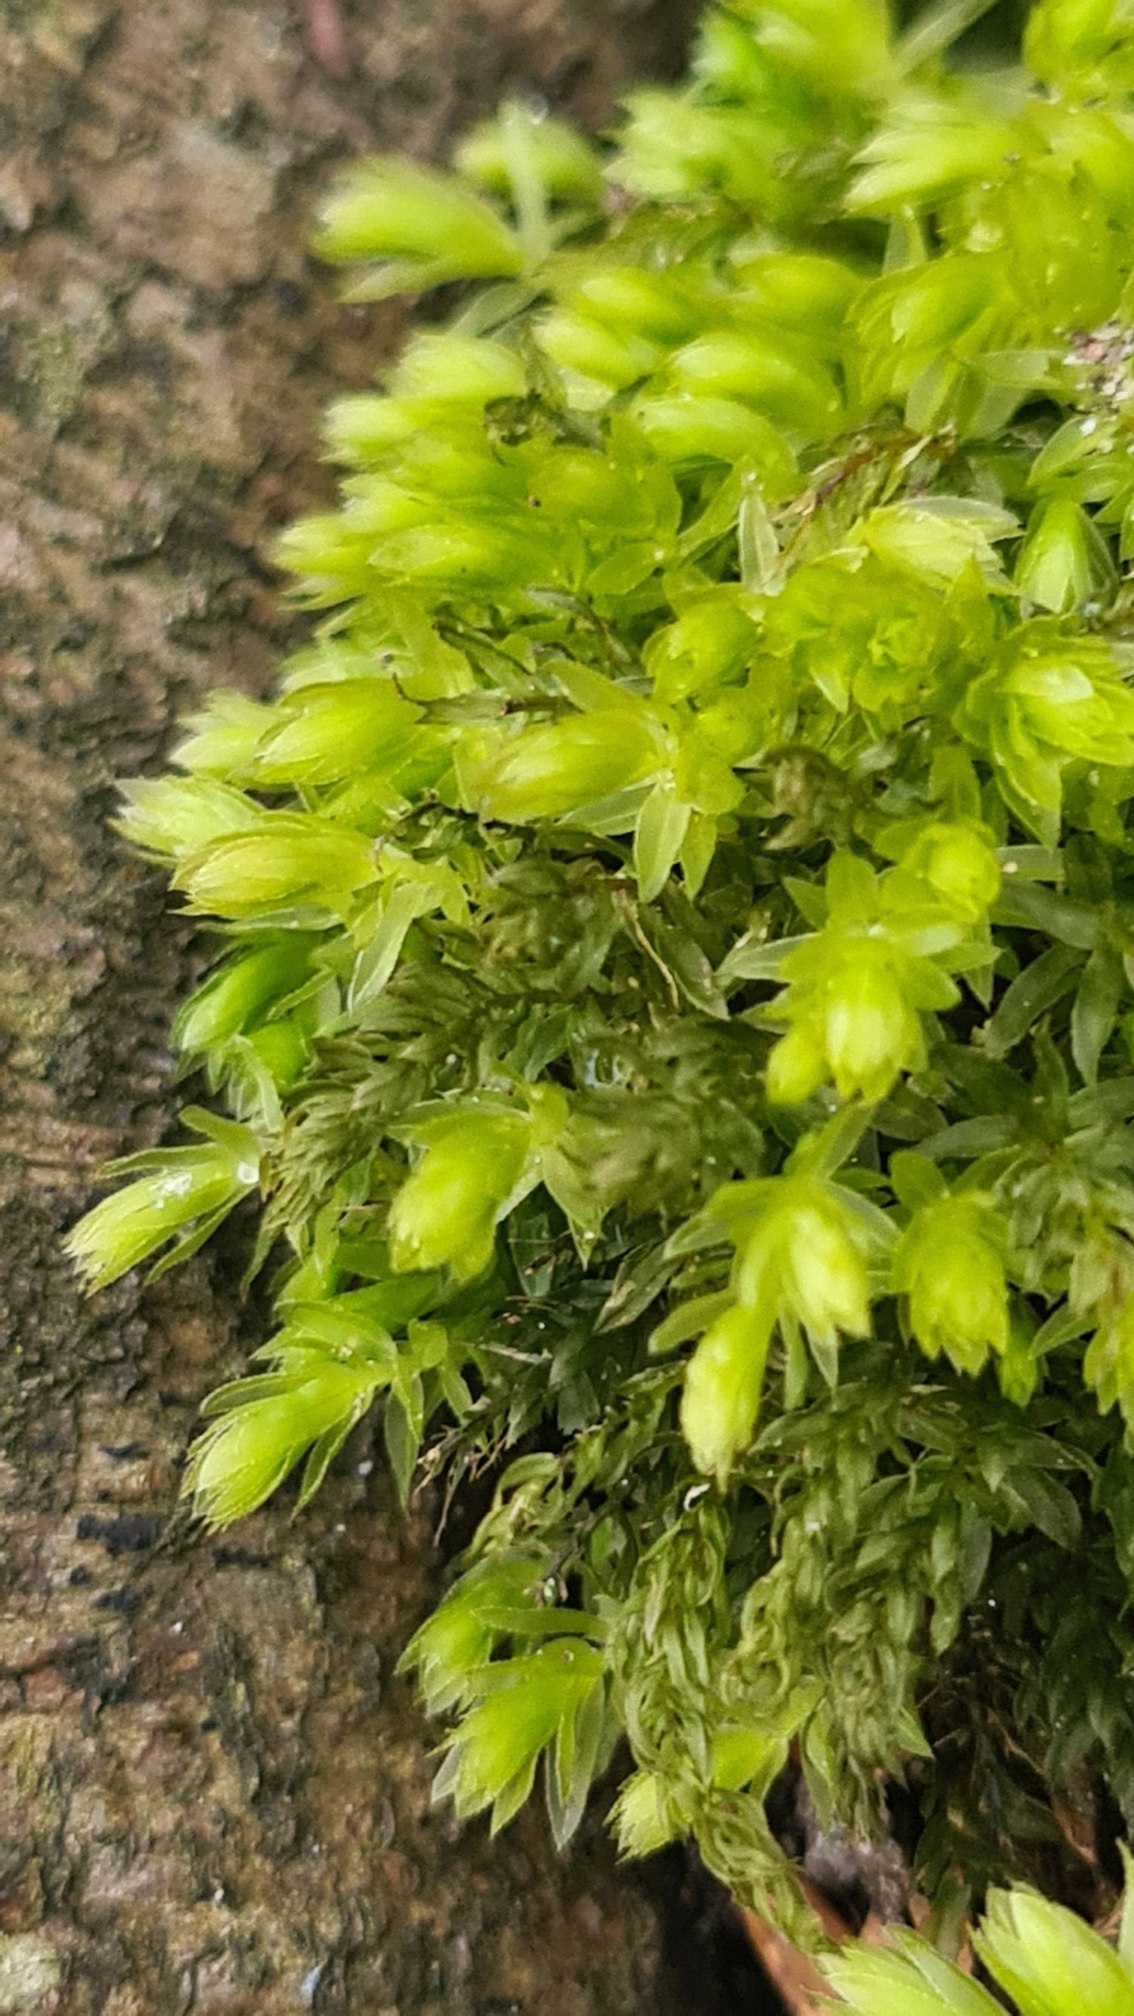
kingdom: Plantae
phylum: Bryophyta
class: Bryopsida
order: Bryales
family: Mniaceae
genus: Mnium
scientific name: Mnium hornum
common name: Brunfiltet stjernemos
